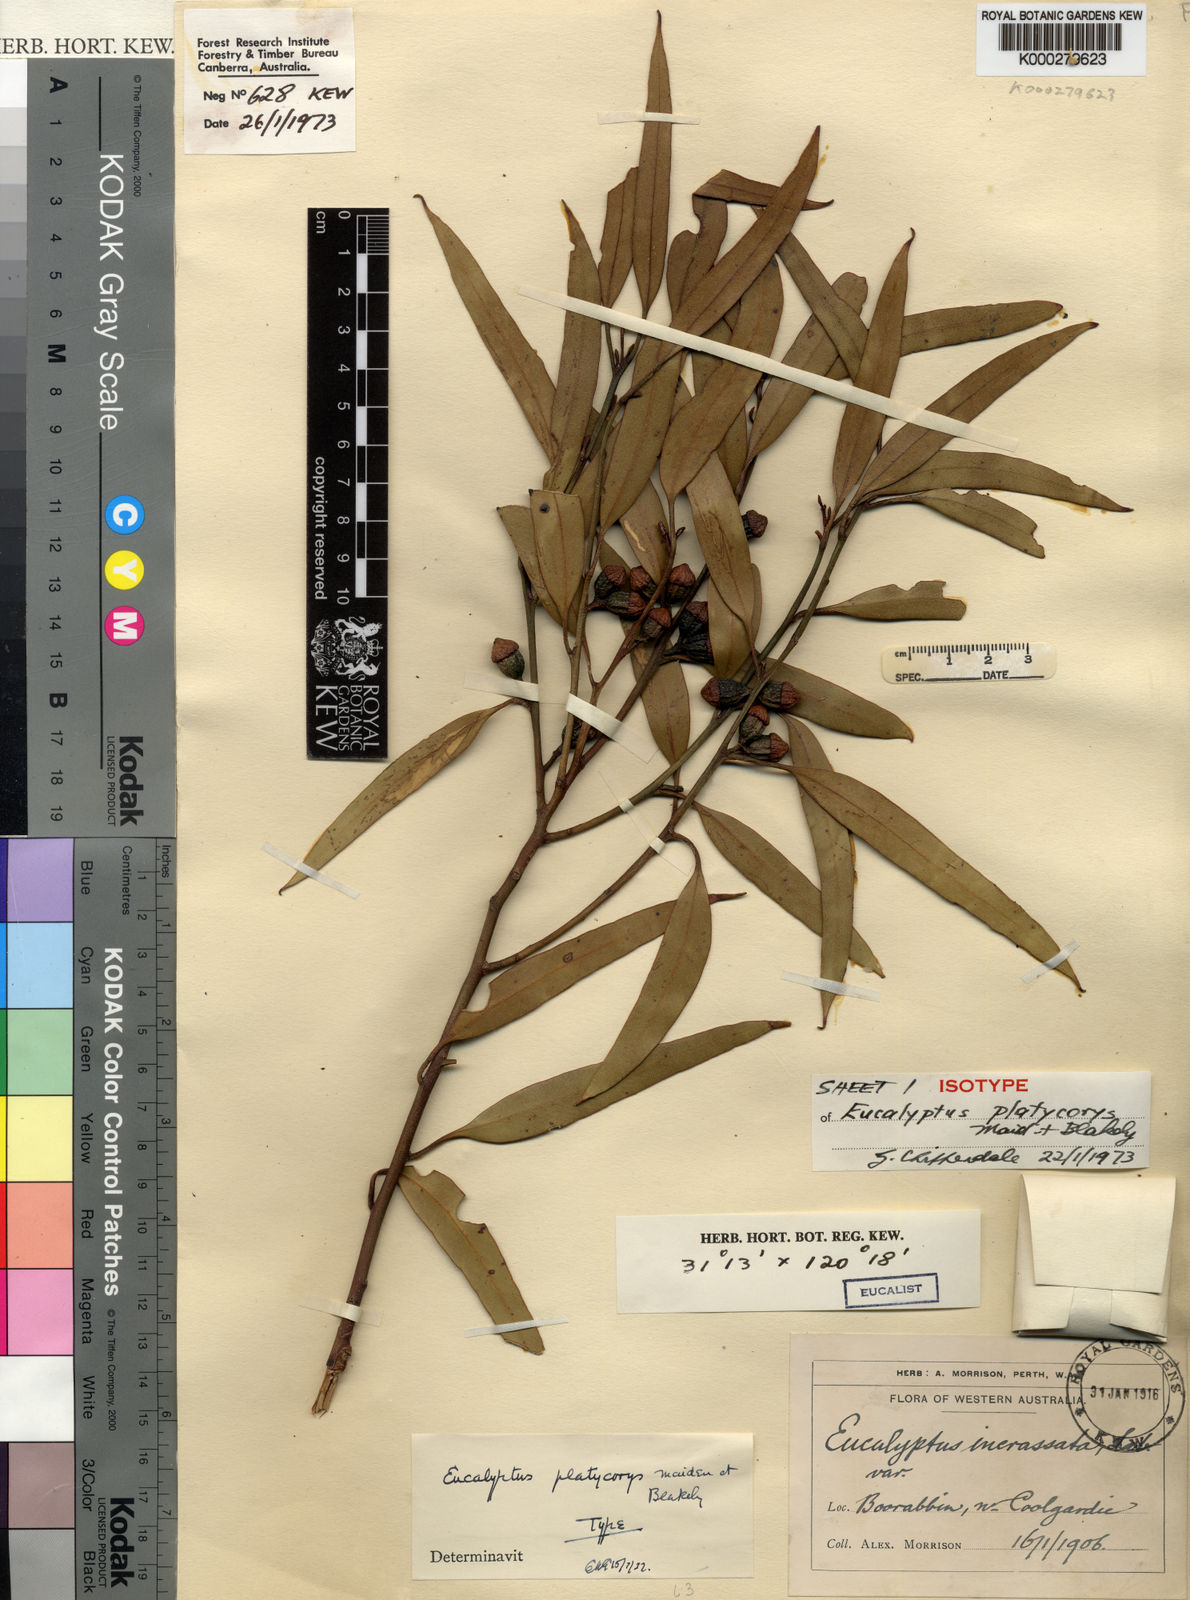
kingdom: Plantae
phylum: Tracheophyta
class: Magnoliopsida
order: Myrtales
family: Myrtaceae
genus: Eucalyptus
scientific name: Eucalyptus platycorys
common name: Boorabbin mallee
